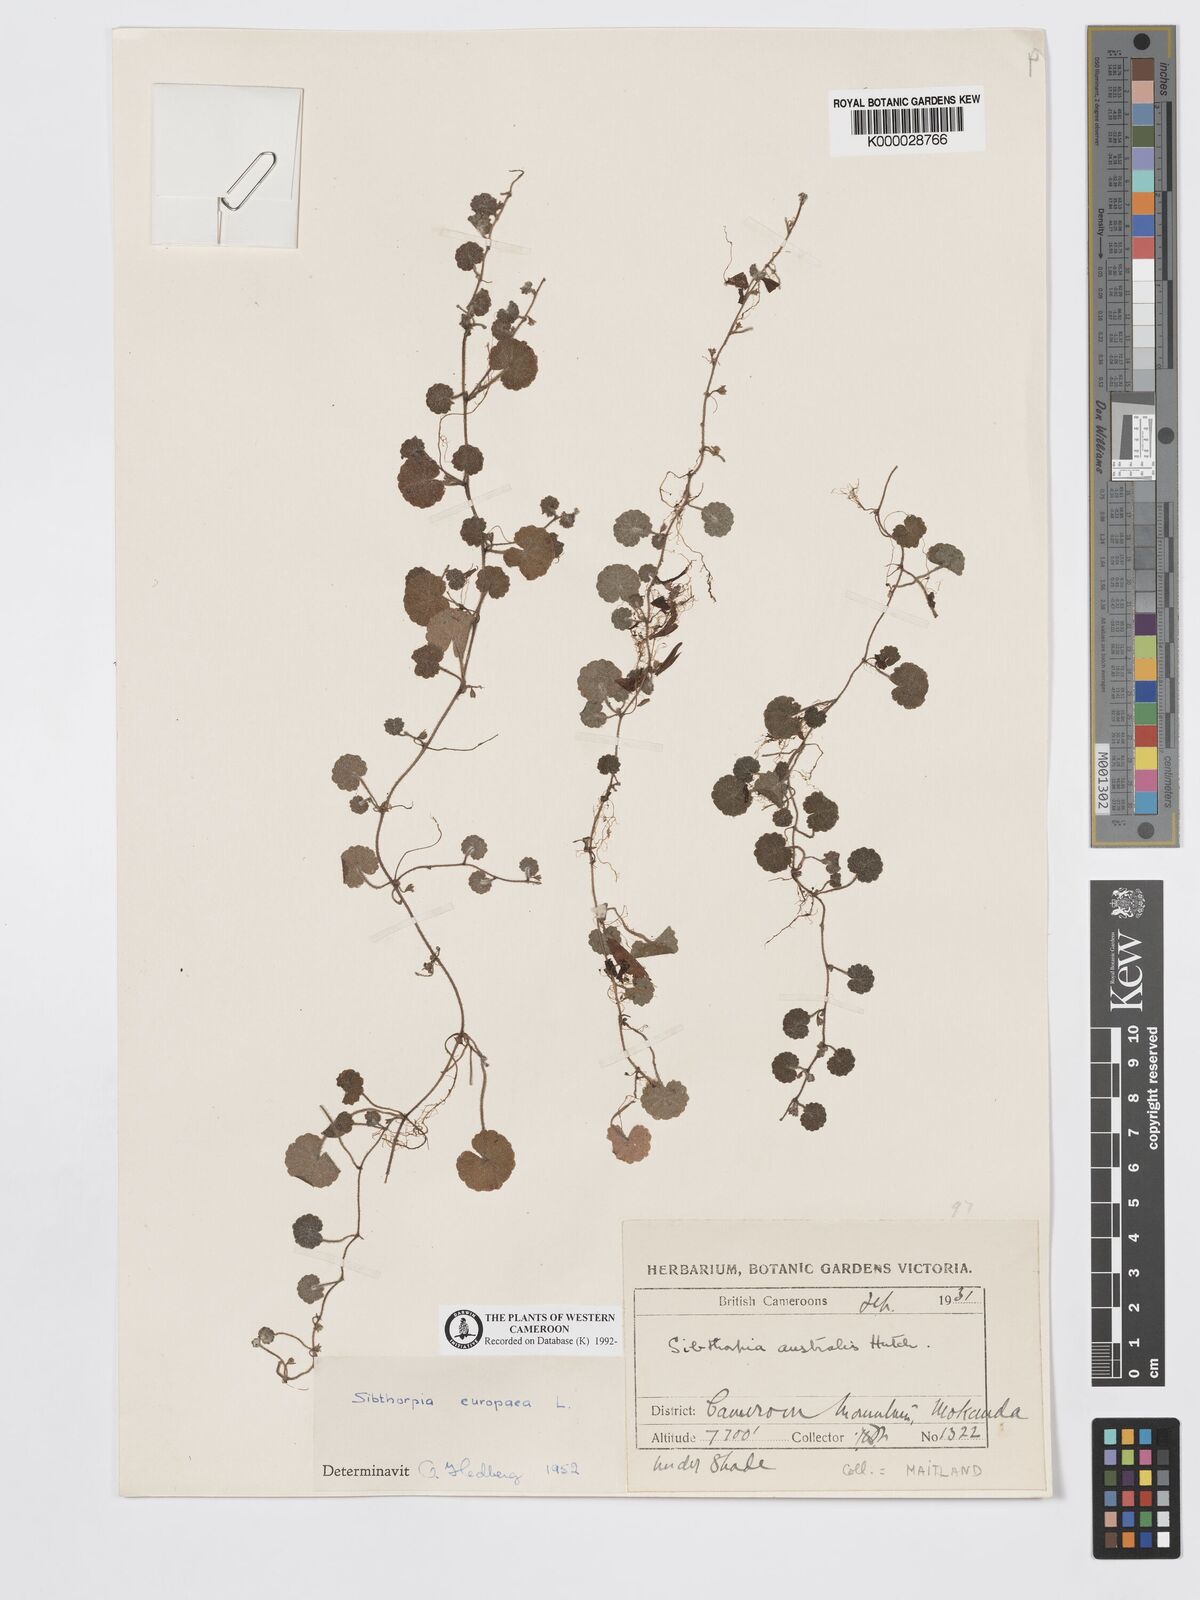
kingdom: Plantae
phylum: Tracheophyta
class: Magnoliopsida
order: Lamiales
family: Plantaginaceae
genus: Sibthorpia
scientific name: Sibthorpia europaea
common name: Cornish moneywort
